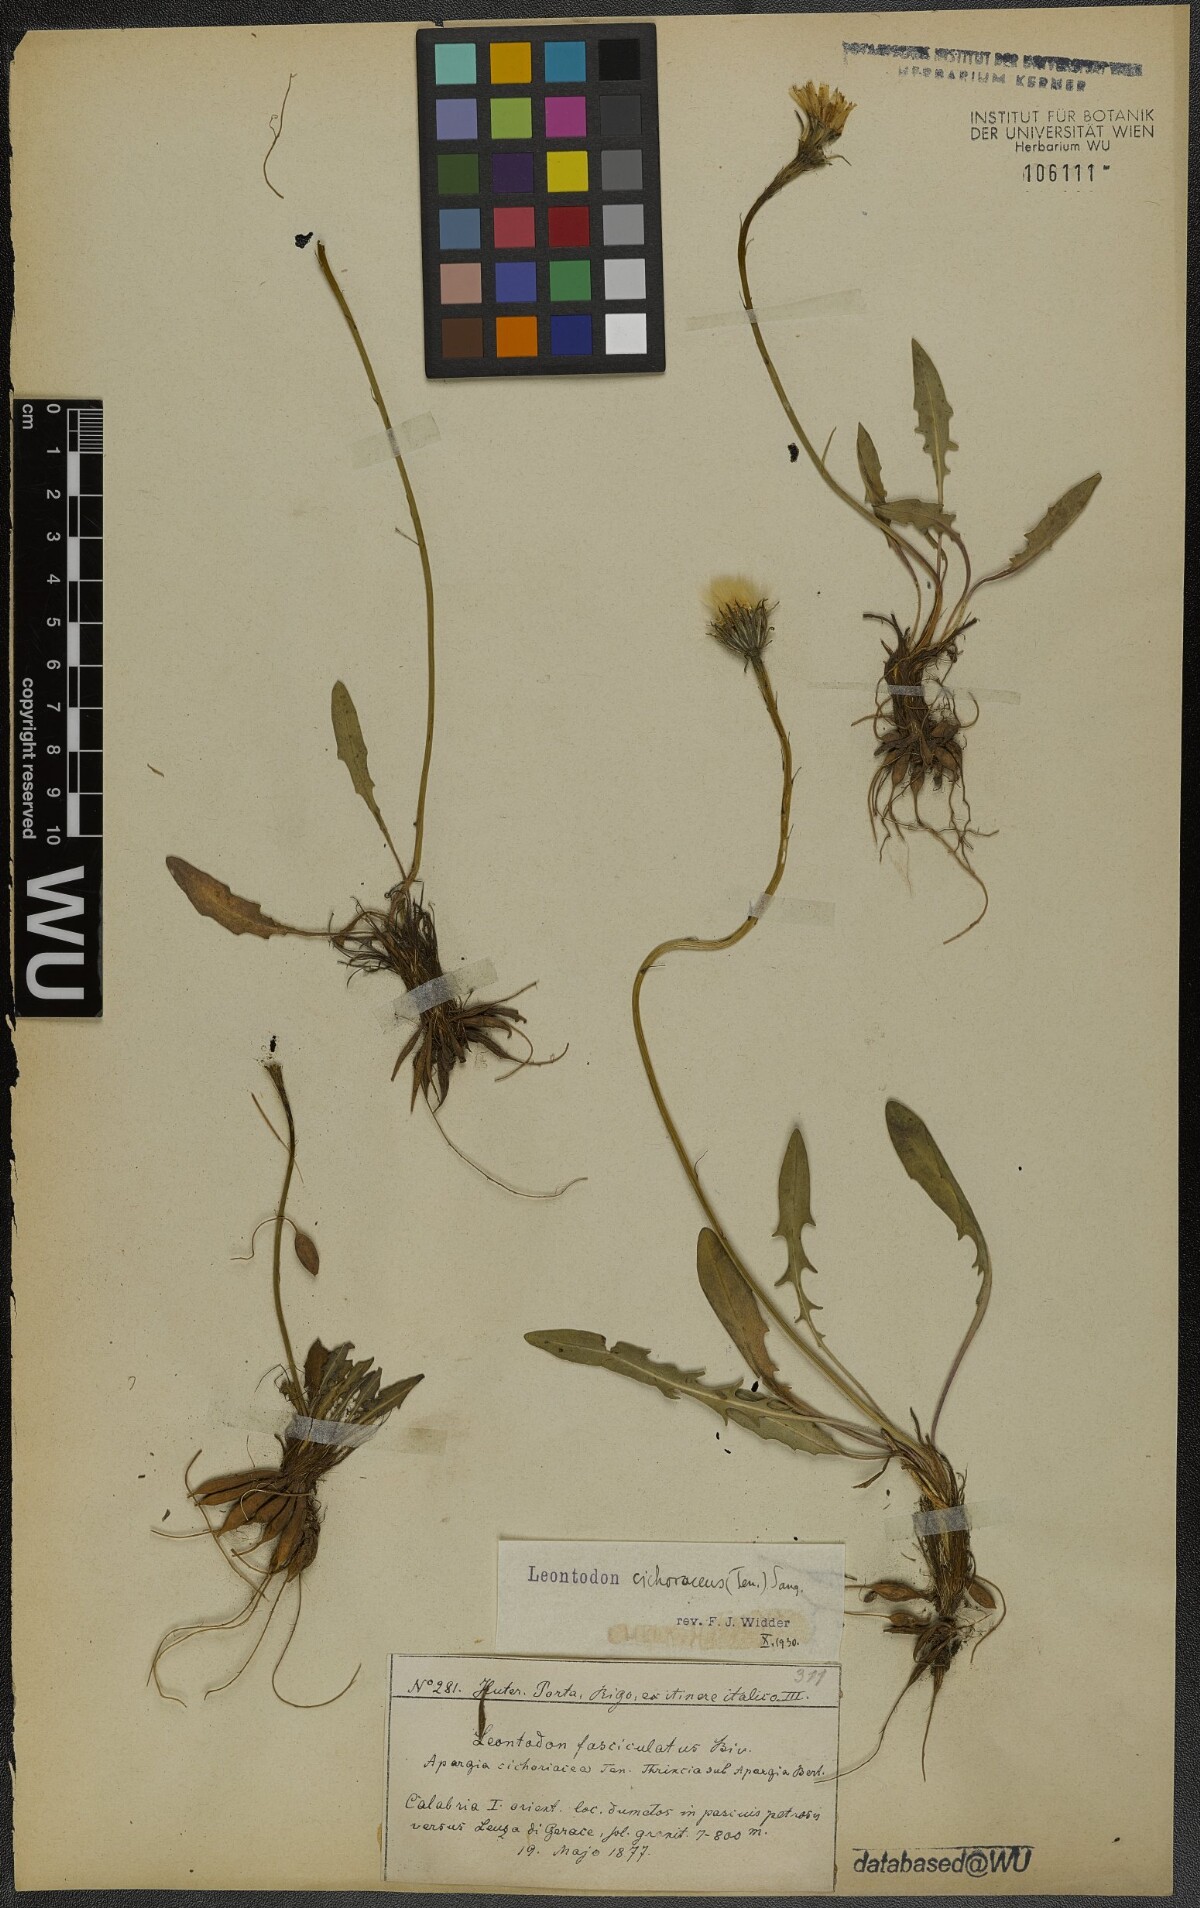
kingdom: Plantae
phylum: Tracheophyta
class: Magnoliopsida
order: Asterales
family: Asteraceae
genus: Scorzoneroides
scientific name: Scorzoneroides cichoriacea
